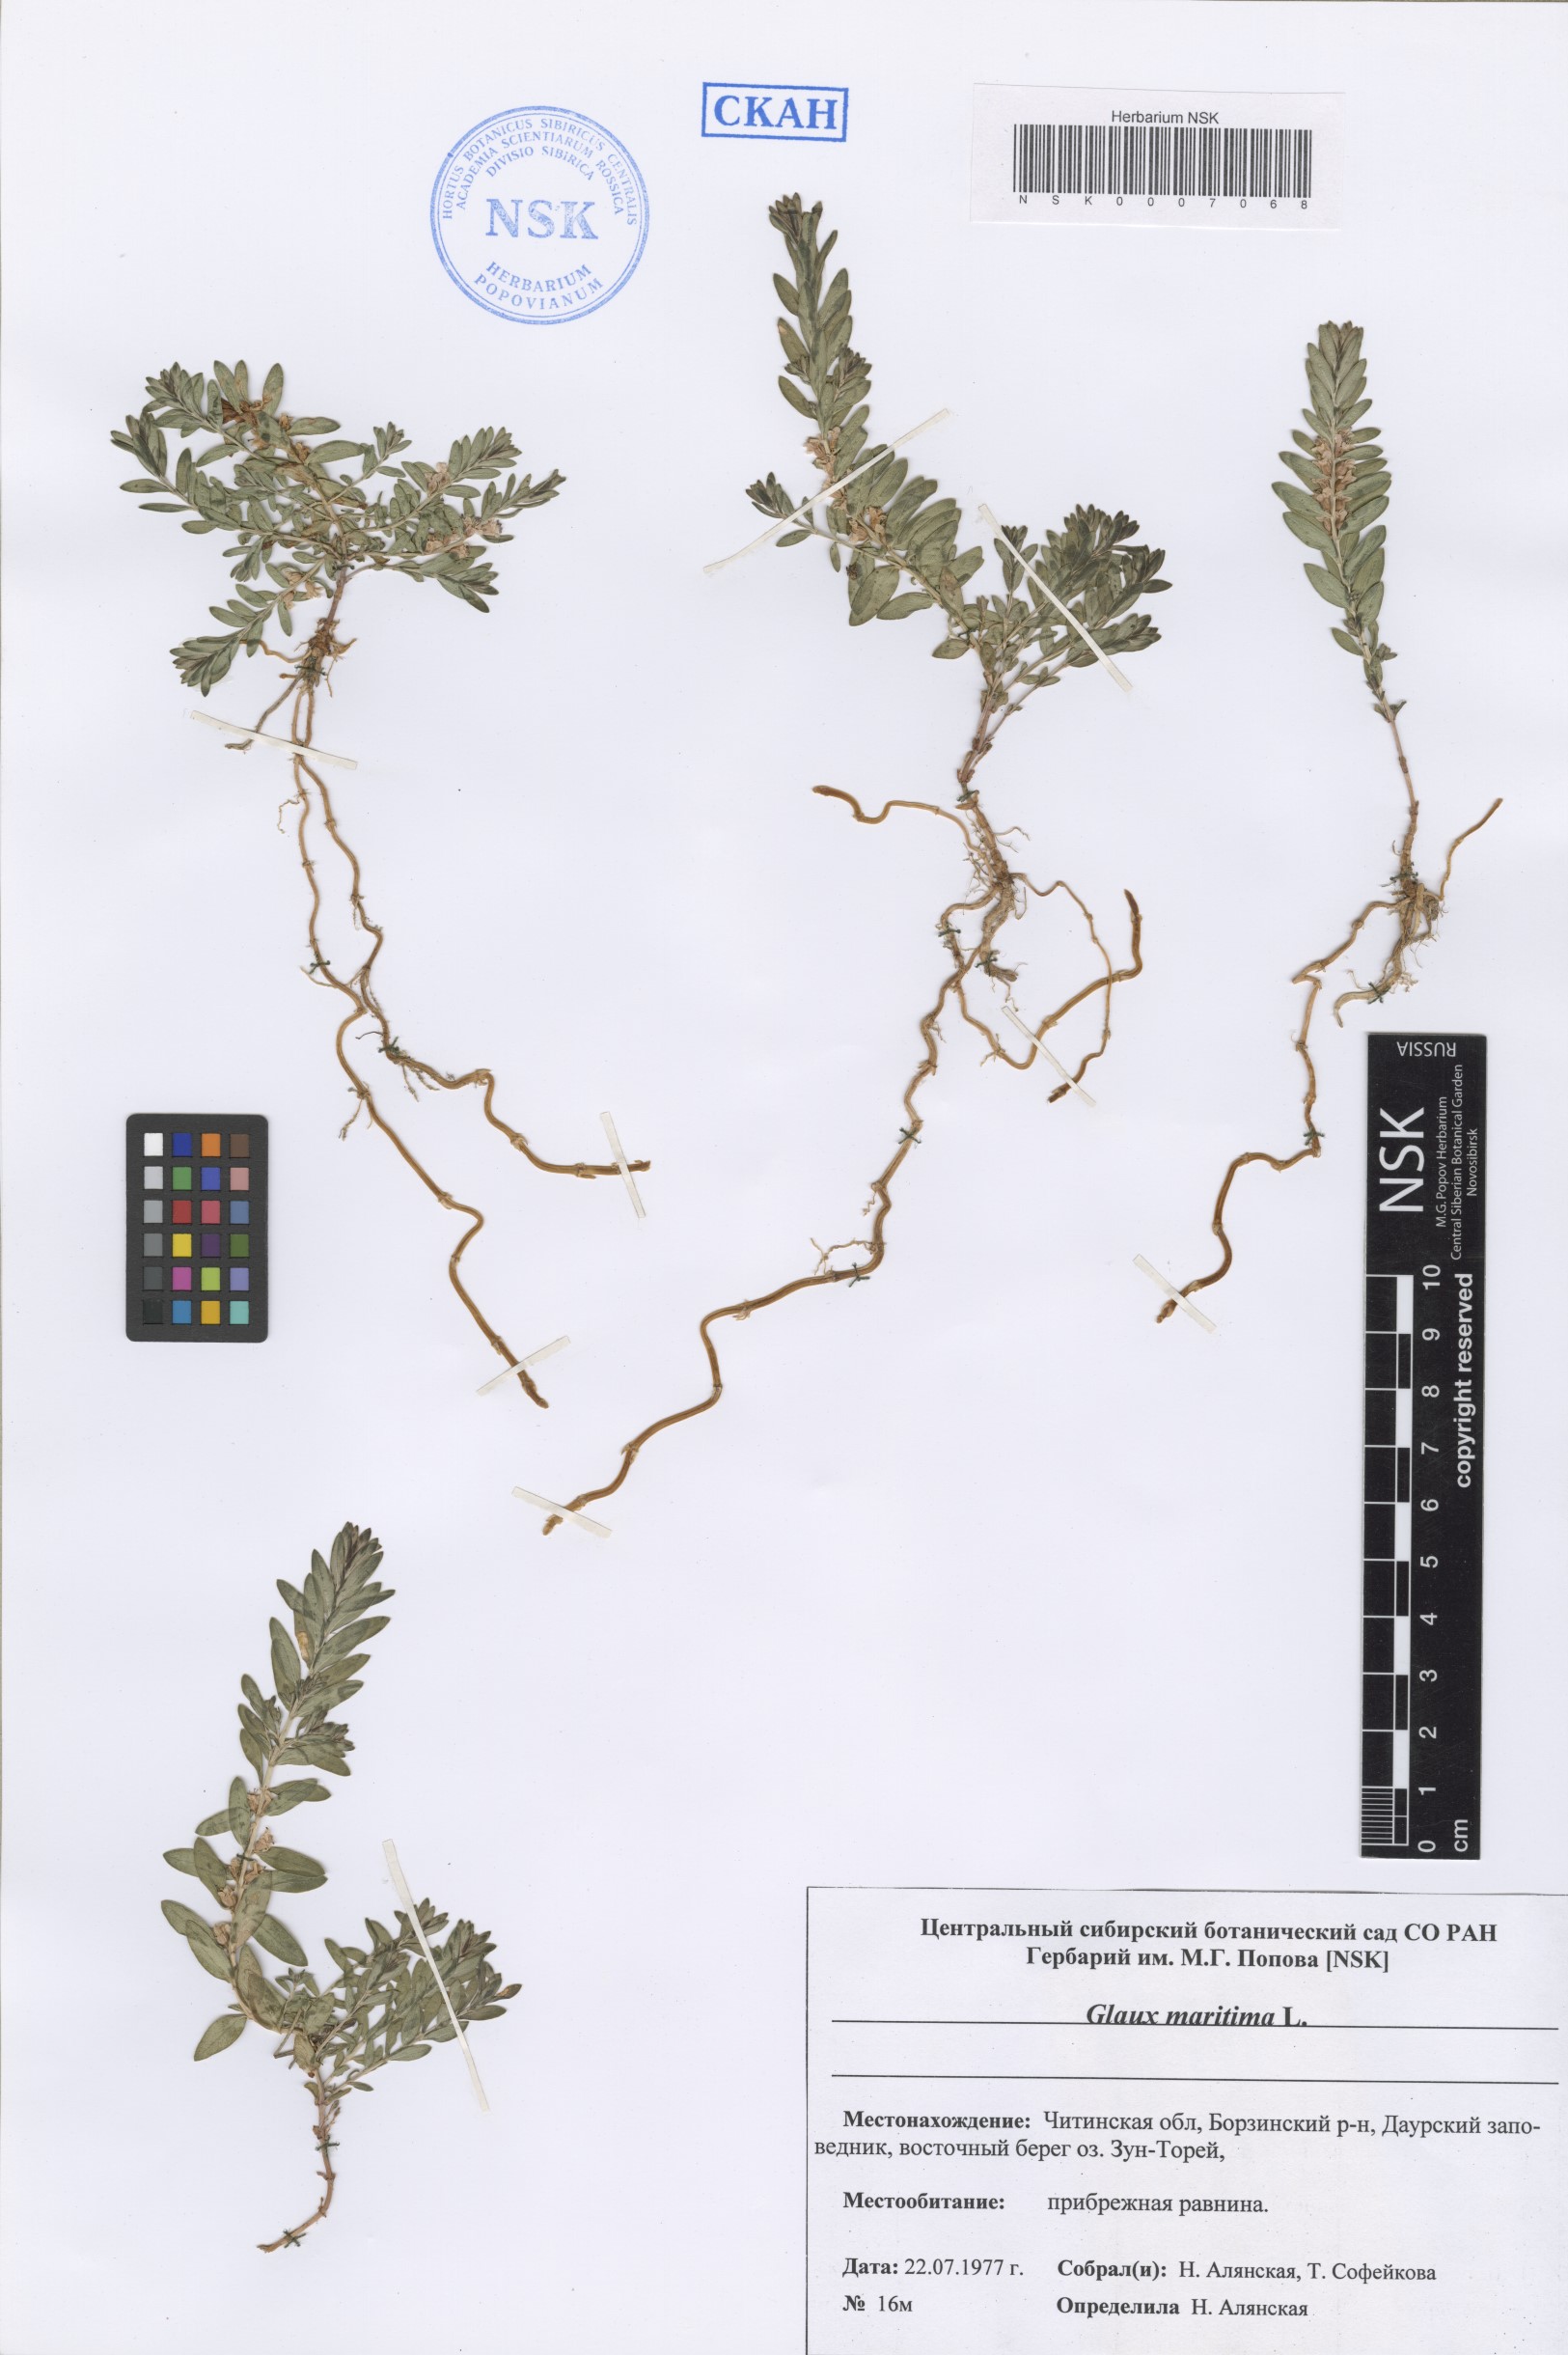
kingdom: Plantae
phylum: Tracheophyta
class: Magnoliopsida
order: Ericales
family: Primulaceae
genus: Lysimachia
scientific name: Lysimachia maritima
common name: Sea milkwort
